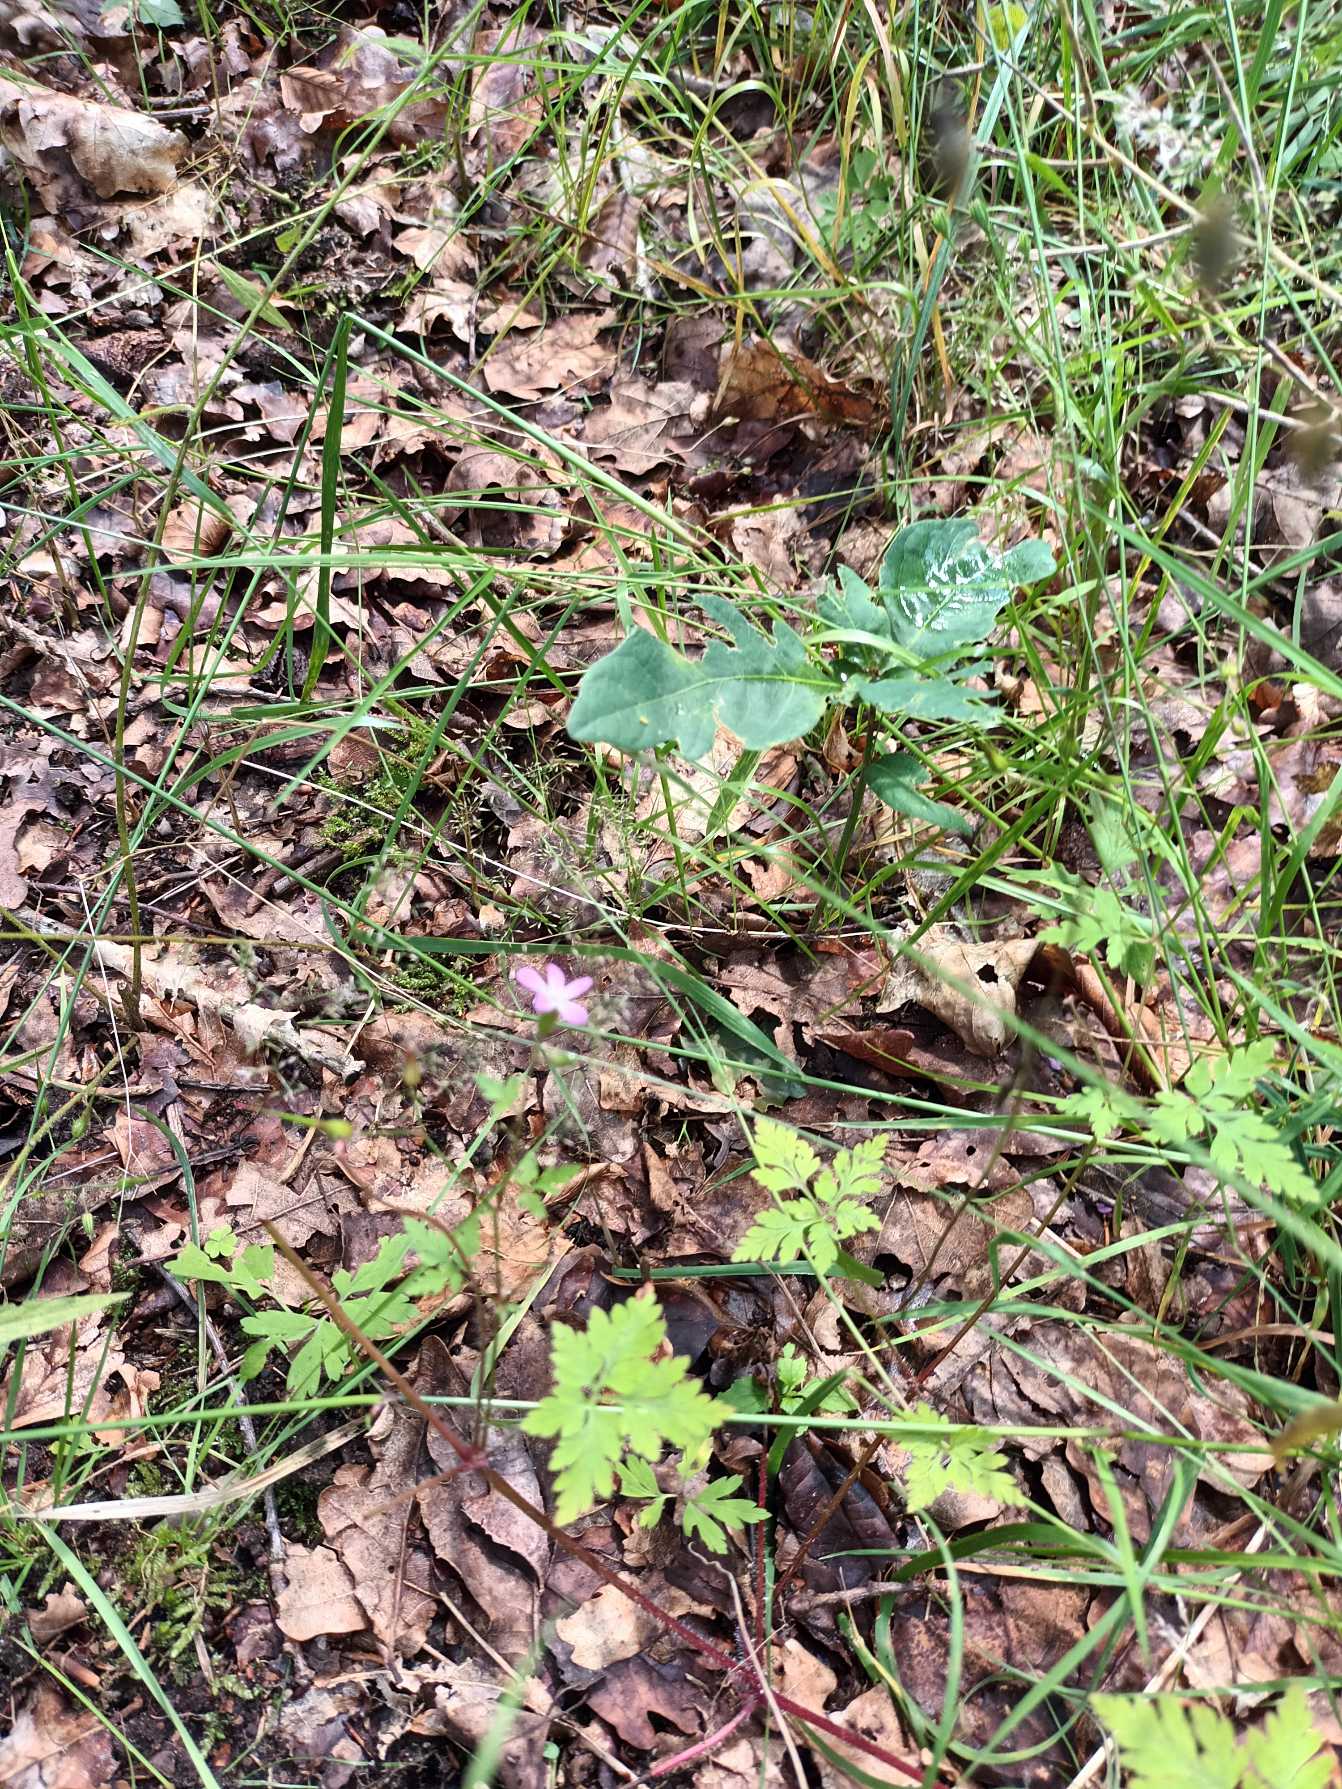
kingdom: Plantae
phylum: Tracheophyta
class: Magnoliopsida
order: Geraniales
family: Geraniaceae
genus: Geranium
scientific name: Geranium robertianum
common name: Stinkende storkenæb
